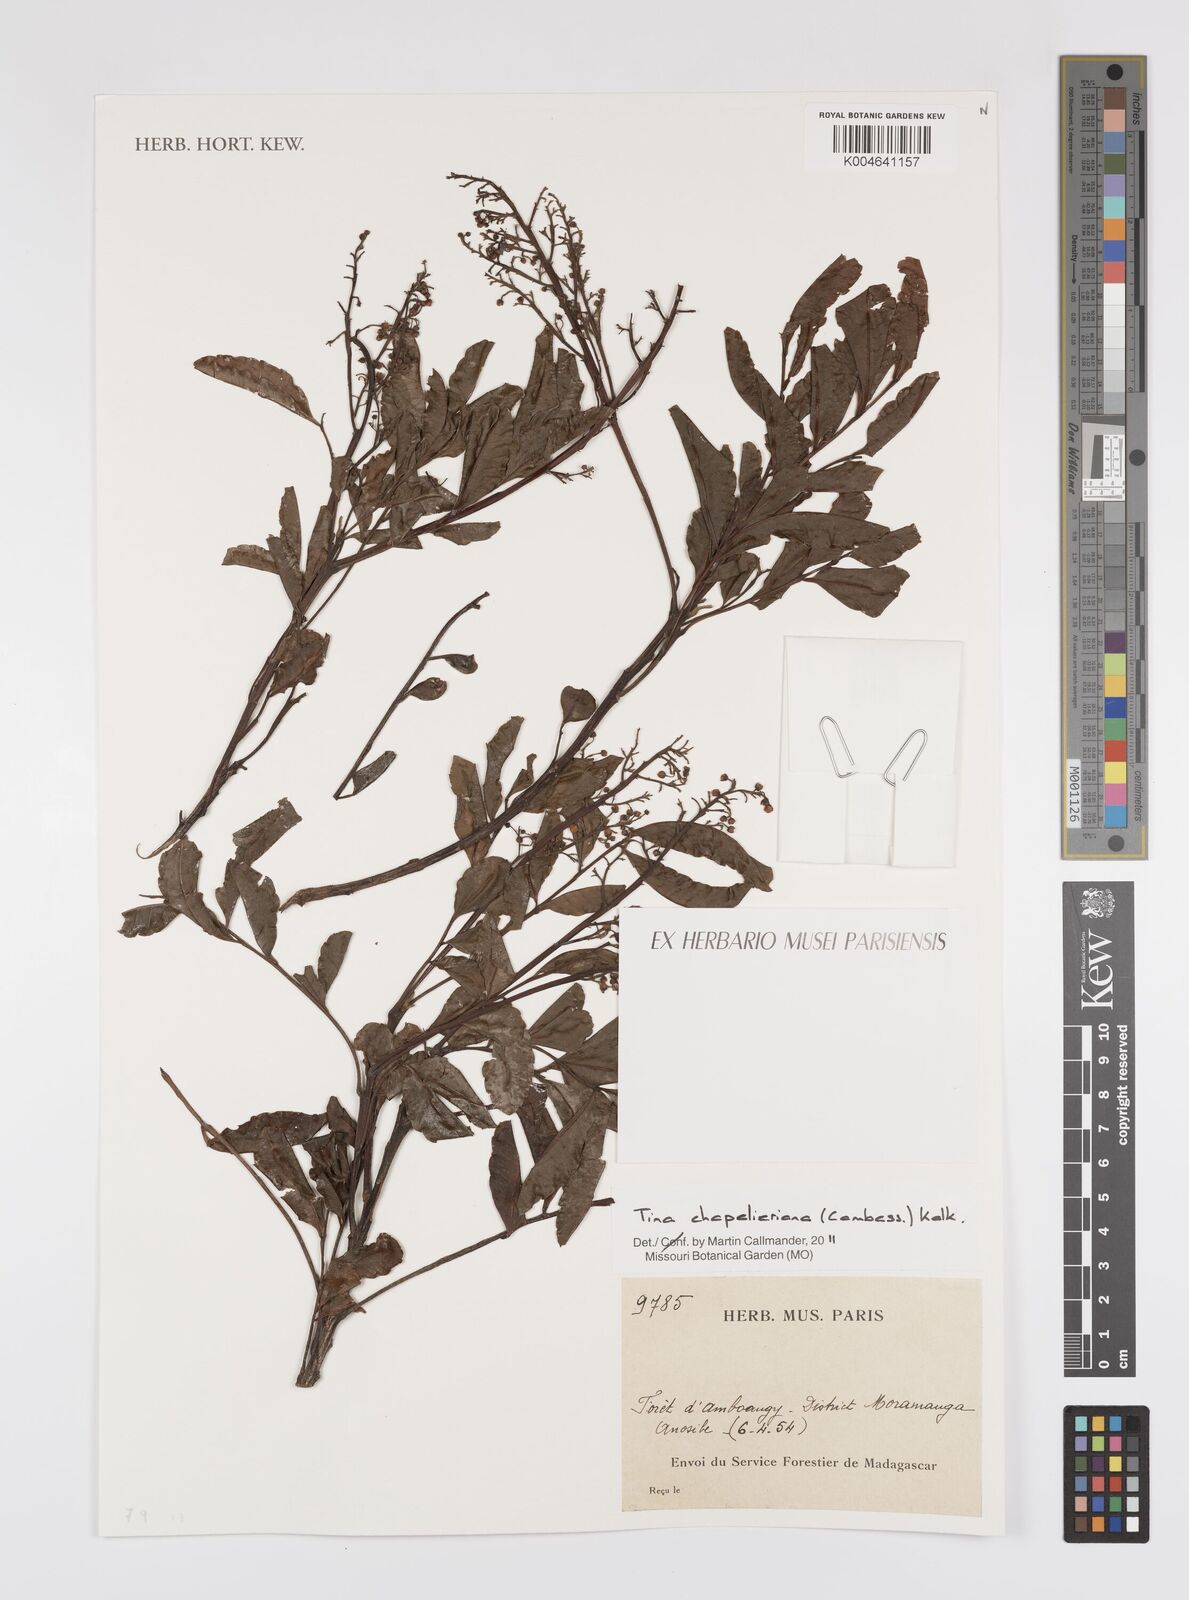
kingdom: Plantae
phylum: Tracheophyta
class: Magnoliopsida
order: Sapindales
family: Sapindaceae
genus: Tina
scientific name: Tina chapelieriana
